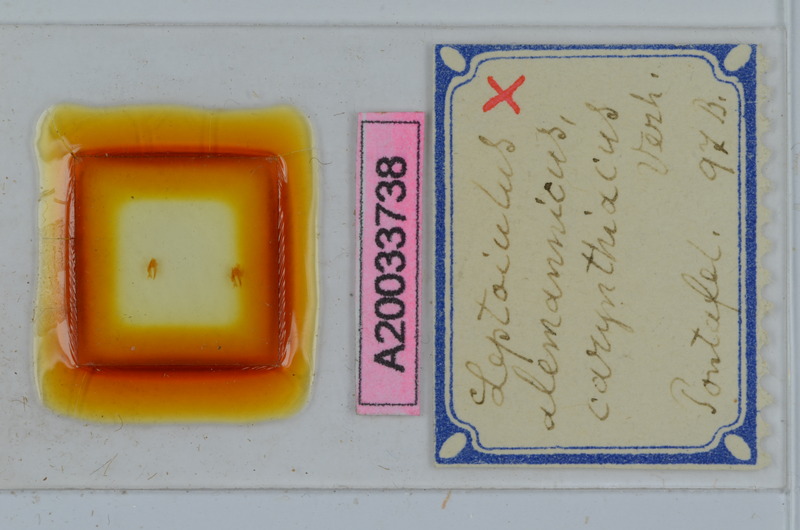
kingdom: Animalia
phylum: Arthropoda
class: Diplopoda
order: Julida
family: Julidae
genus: Leptoiulus
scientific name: Leptoiulus alemannicus
